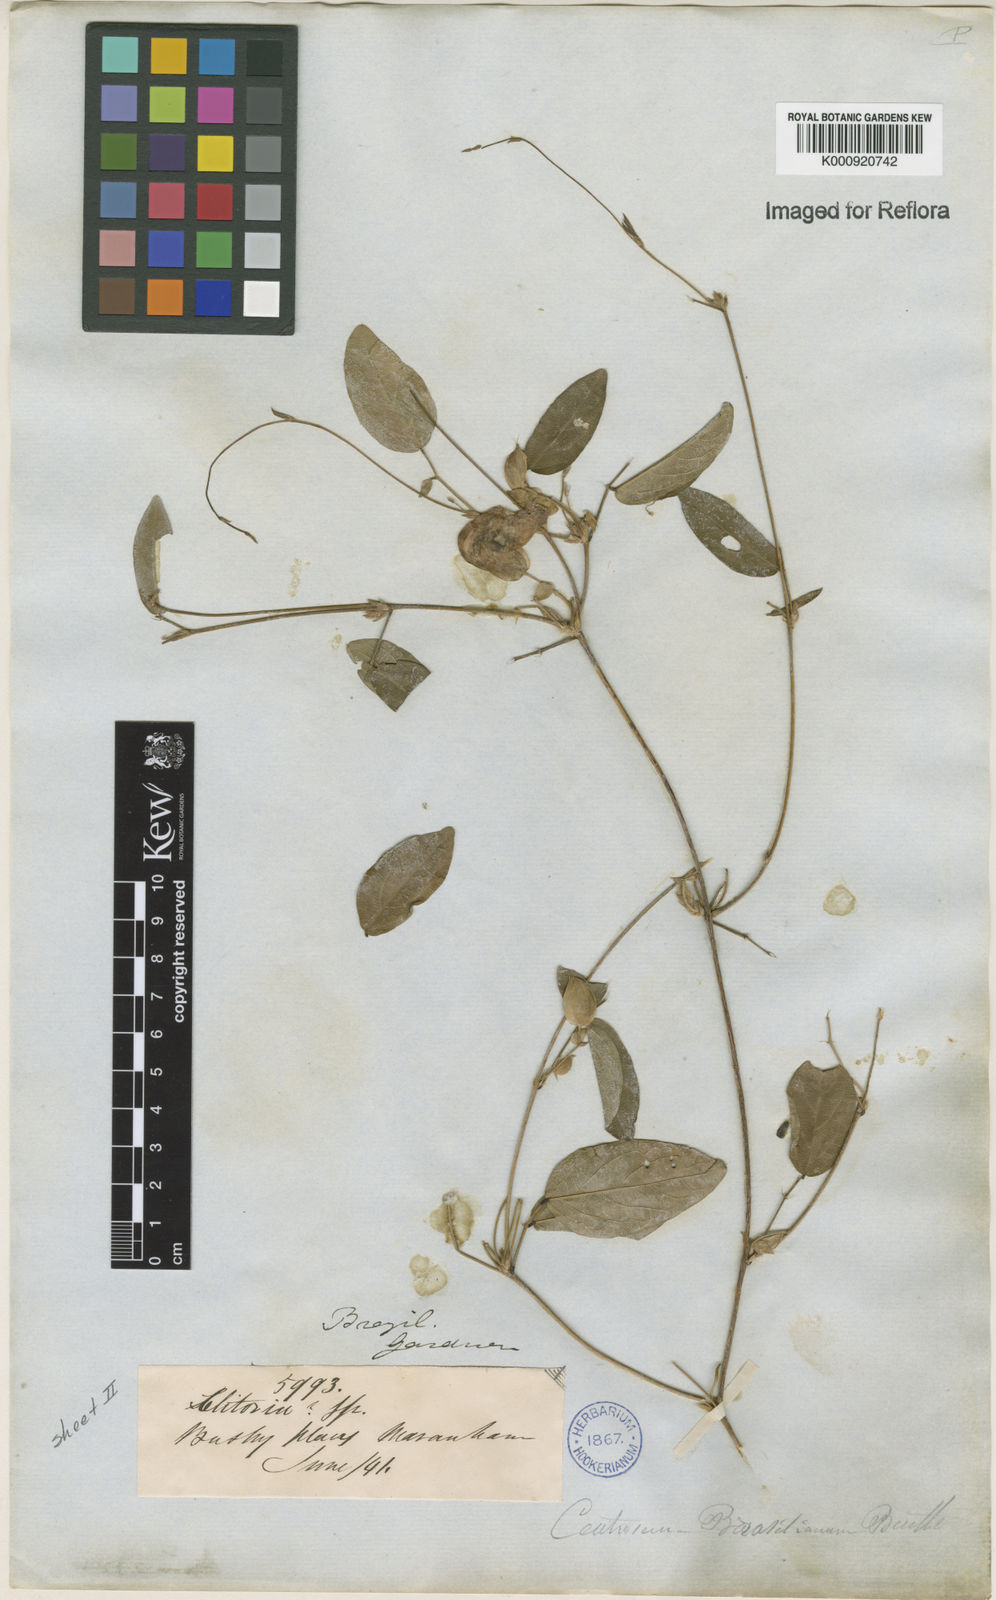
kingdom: Plantae
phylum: Tracheophyta
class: Magnoliopsida
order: Fabales
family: Fabaceae
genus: Centrosema
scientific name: Centrosema brasilianum
